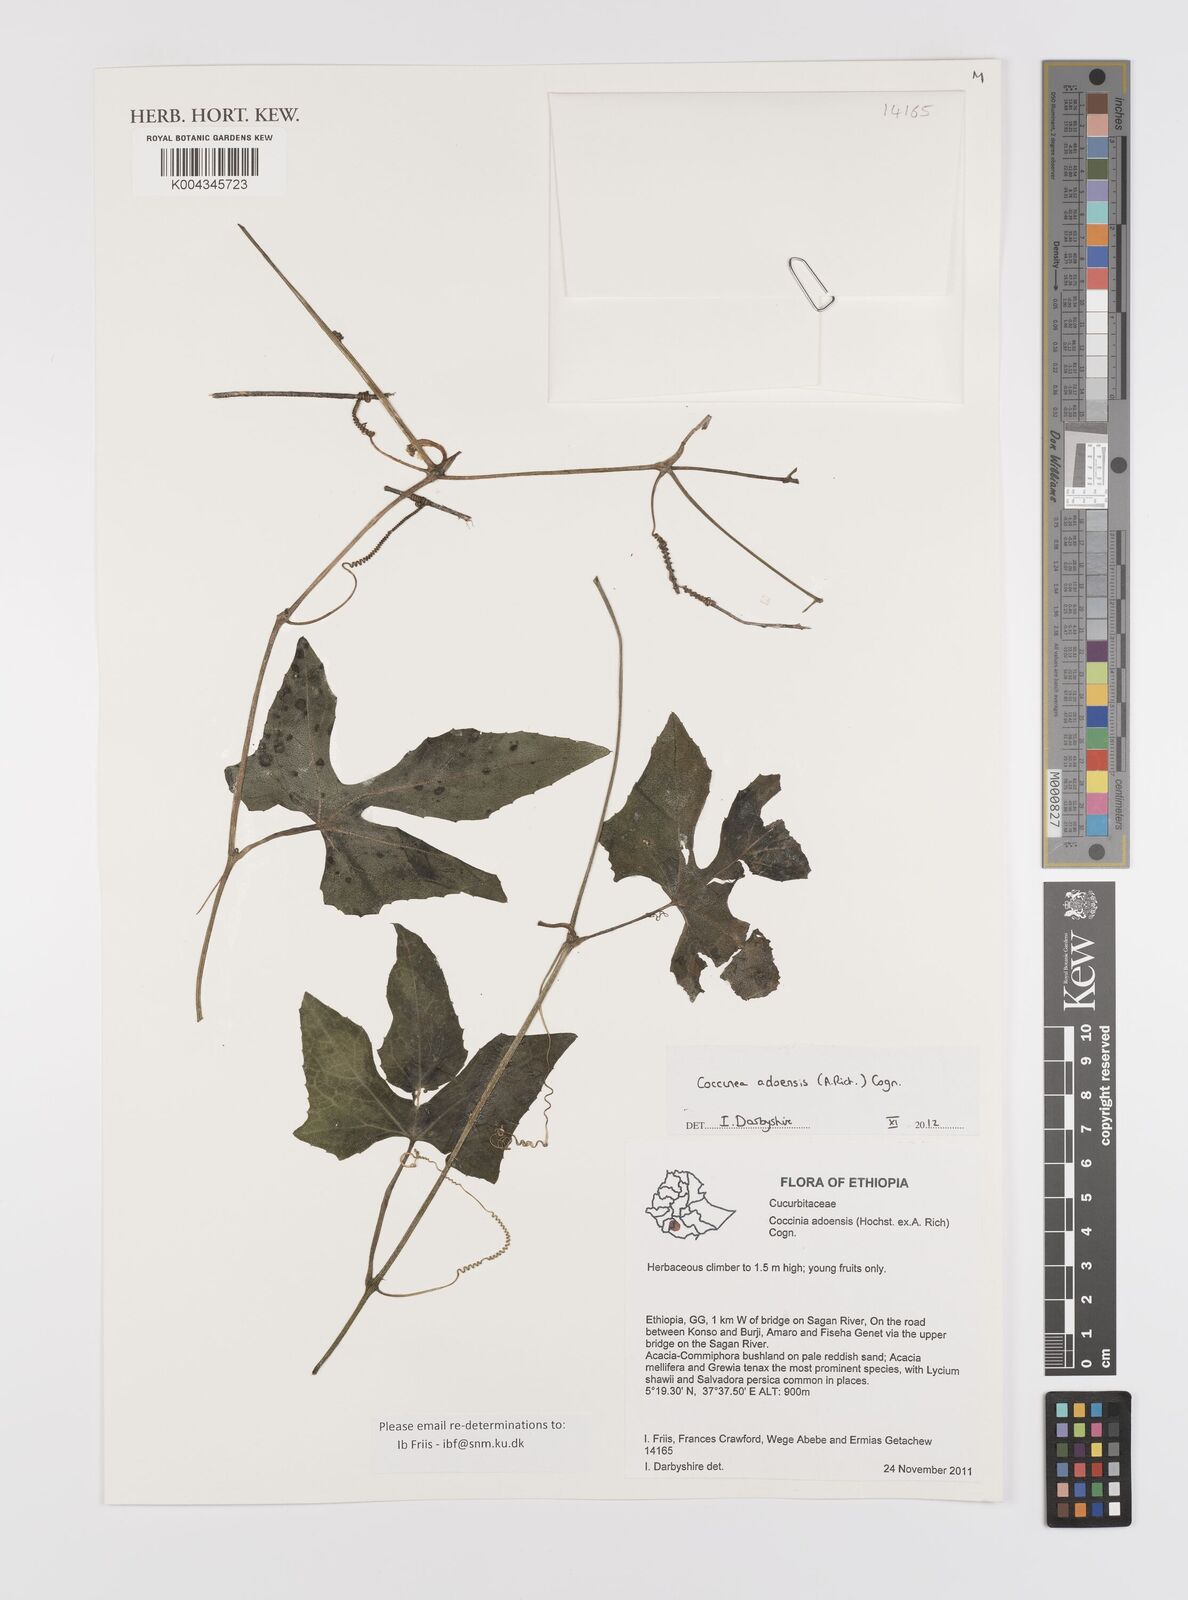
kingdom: Plantae
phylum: Tracheophyta
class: Magnoliopsida
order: Cucurbitales
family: Cucurbitaceae
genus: Coccinia
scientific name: Coccinia adoensis
